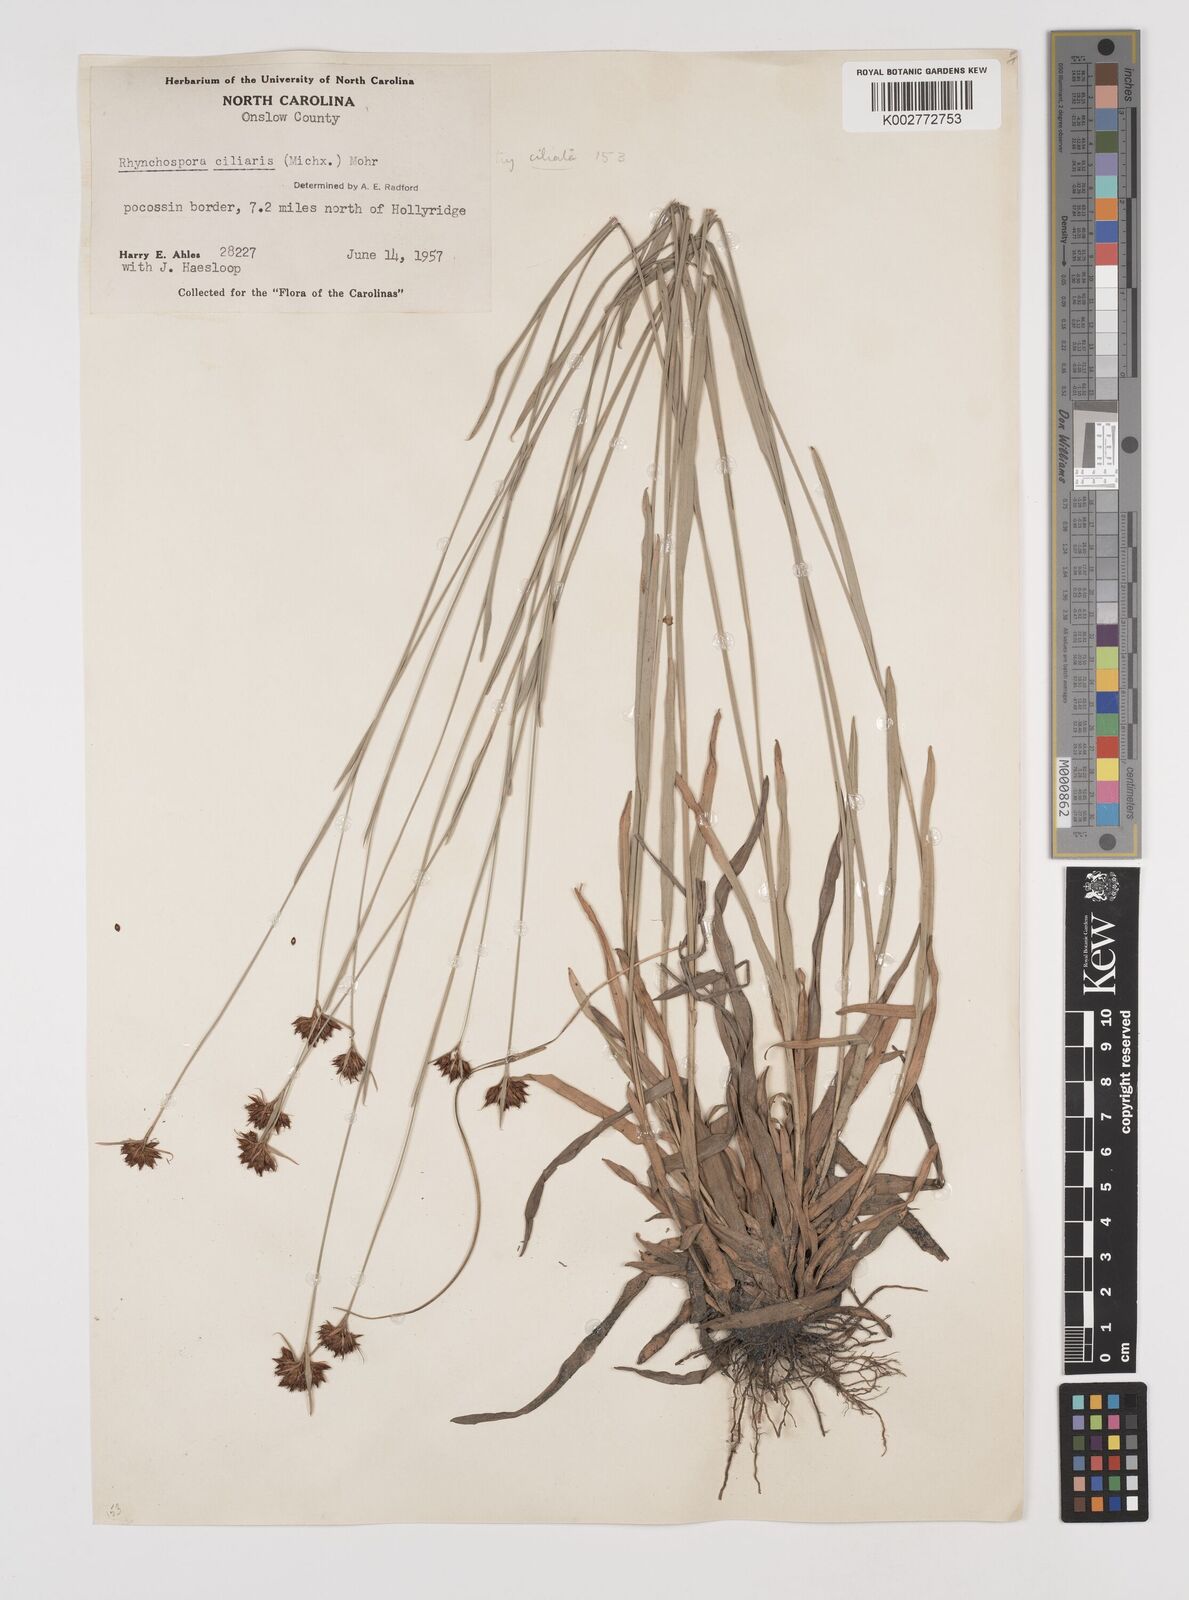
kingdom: Plantae
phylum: Tracheophyta
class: Liliopsida
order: Poales
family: Cyperaceae
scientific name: Cyperaceae
